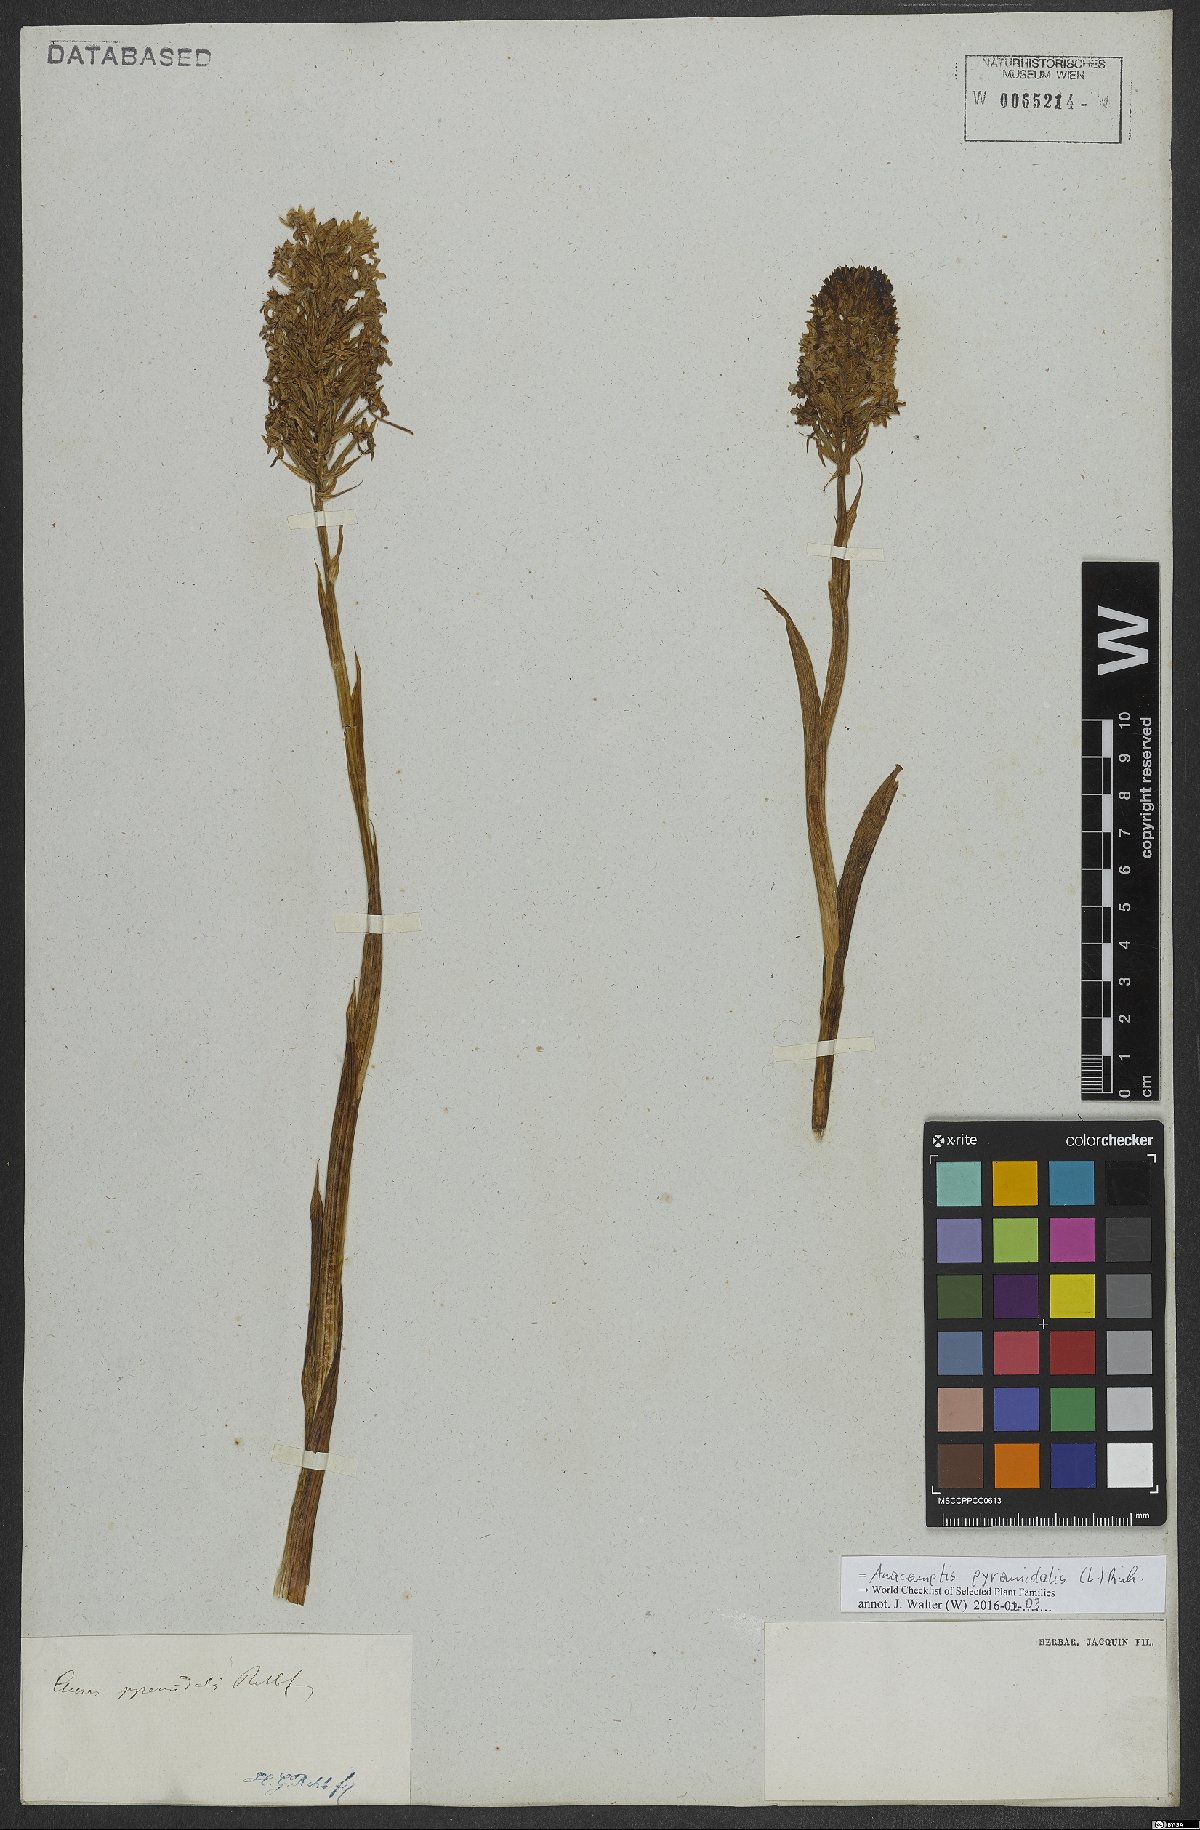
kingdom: Plantae
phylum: Tracheophyta
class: Liliopsida
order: Asparagales
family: Orchidaceae
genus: Anacamptis
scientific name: Anacamptis pyramidalis
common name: Pyramidal orchid
